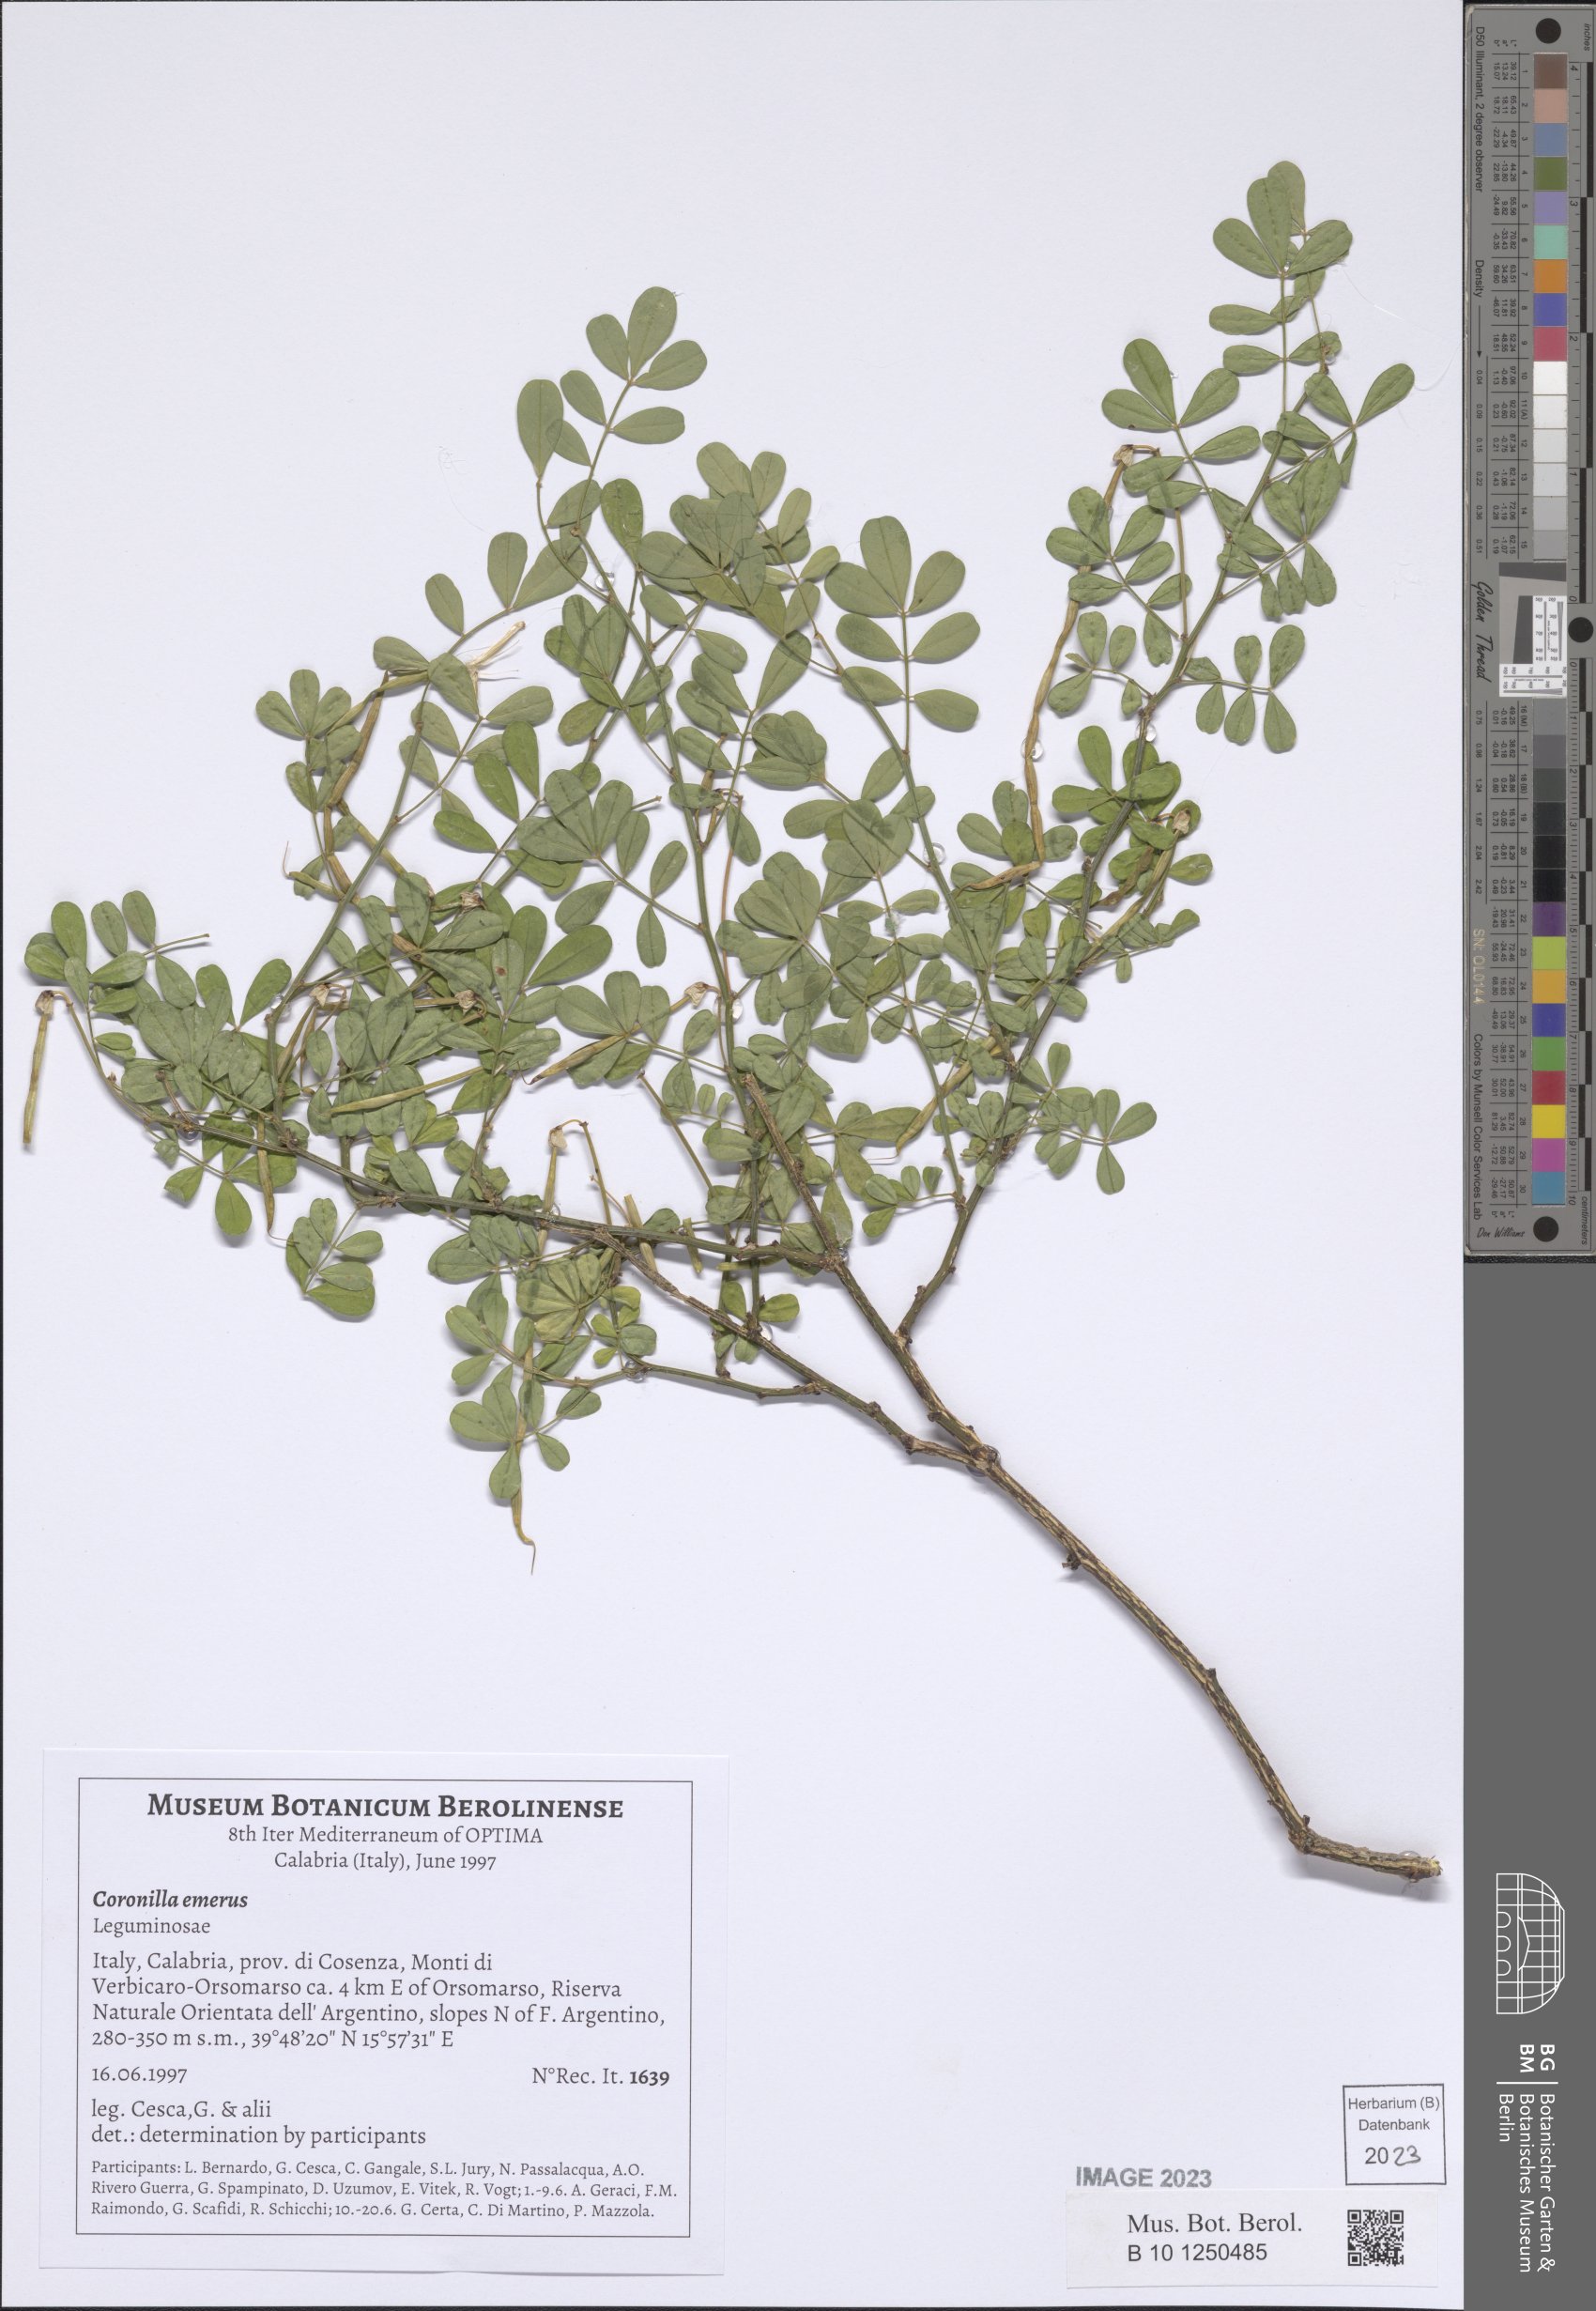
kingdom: Plantae
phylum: Tracheophyta
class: Magnoliopsida
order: Fabales
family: Fabaceae
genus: Hippocrepis
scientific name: Hippocrepis emerus
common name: Scorpion senna
